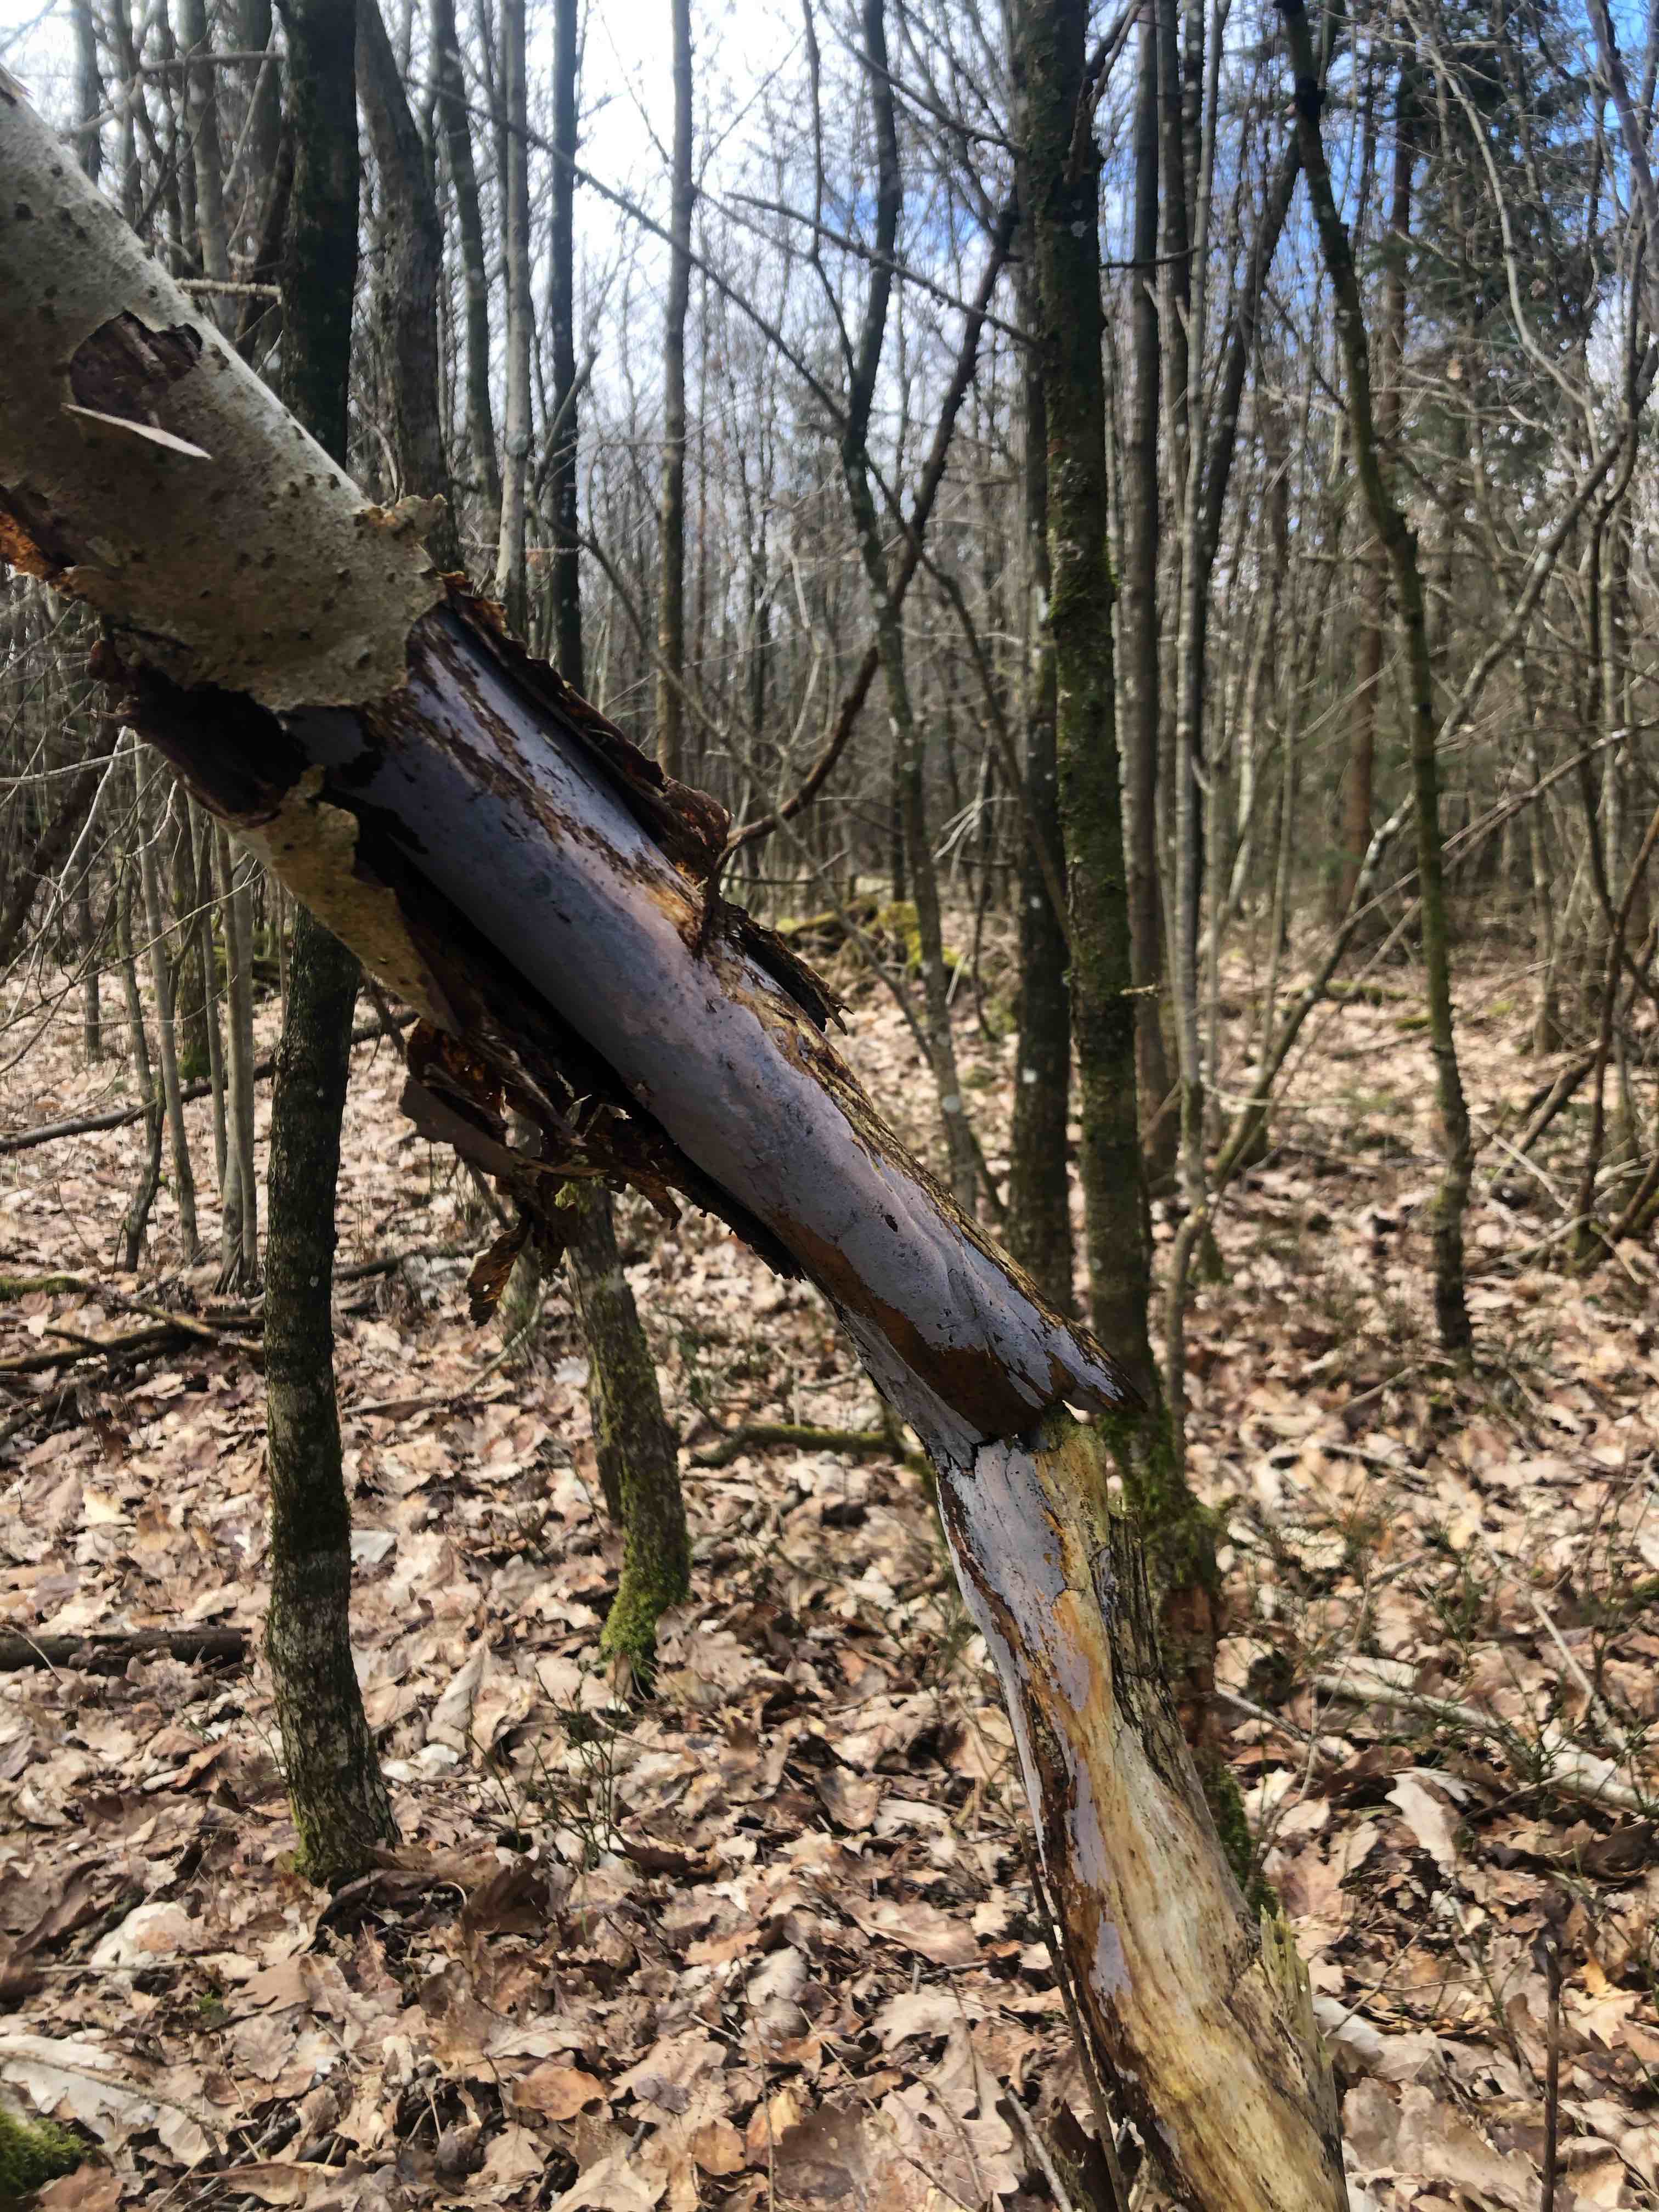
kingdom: Fungi
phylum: Basidiomycota
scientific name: Basidiomycota
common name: basidiesvampe
